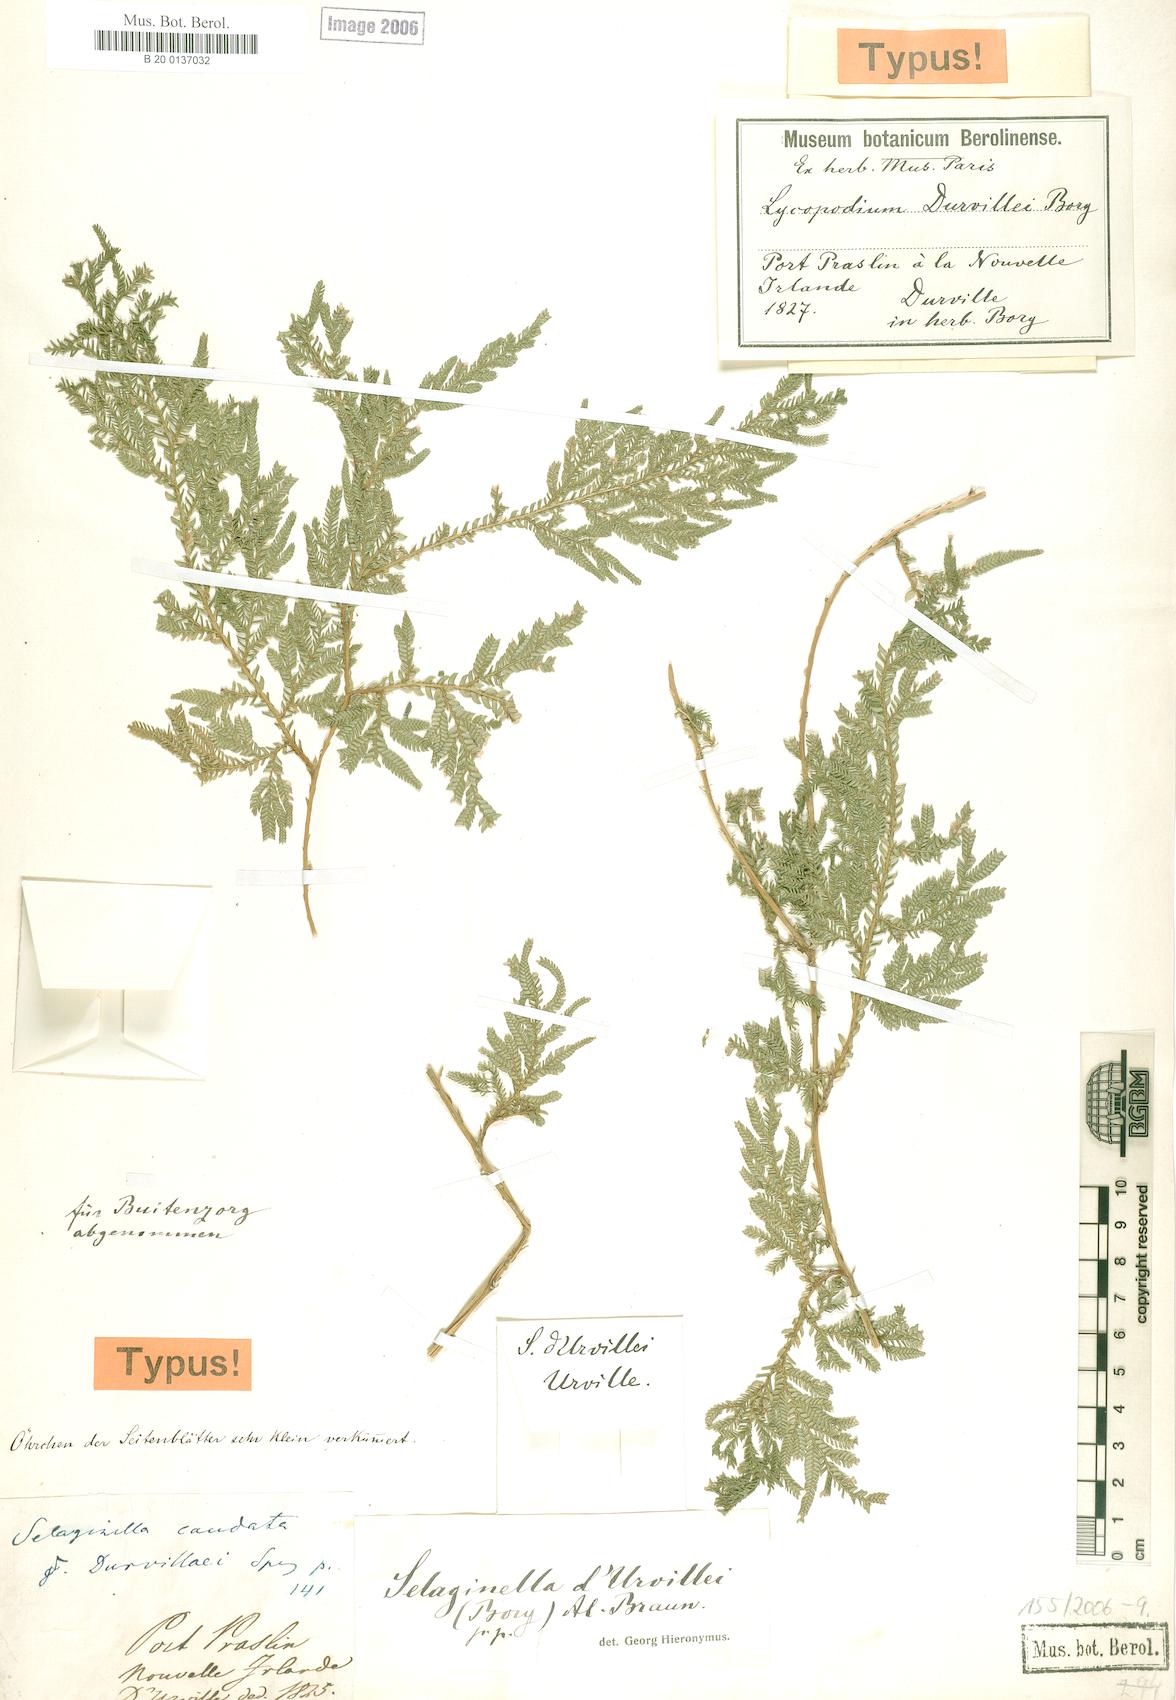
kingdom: Plantae
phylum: Tracheophyta
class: Lycopodiopsida
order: Selaginellales
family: Selaginellaceae
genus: Selaginella
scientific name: Selaginella plana
